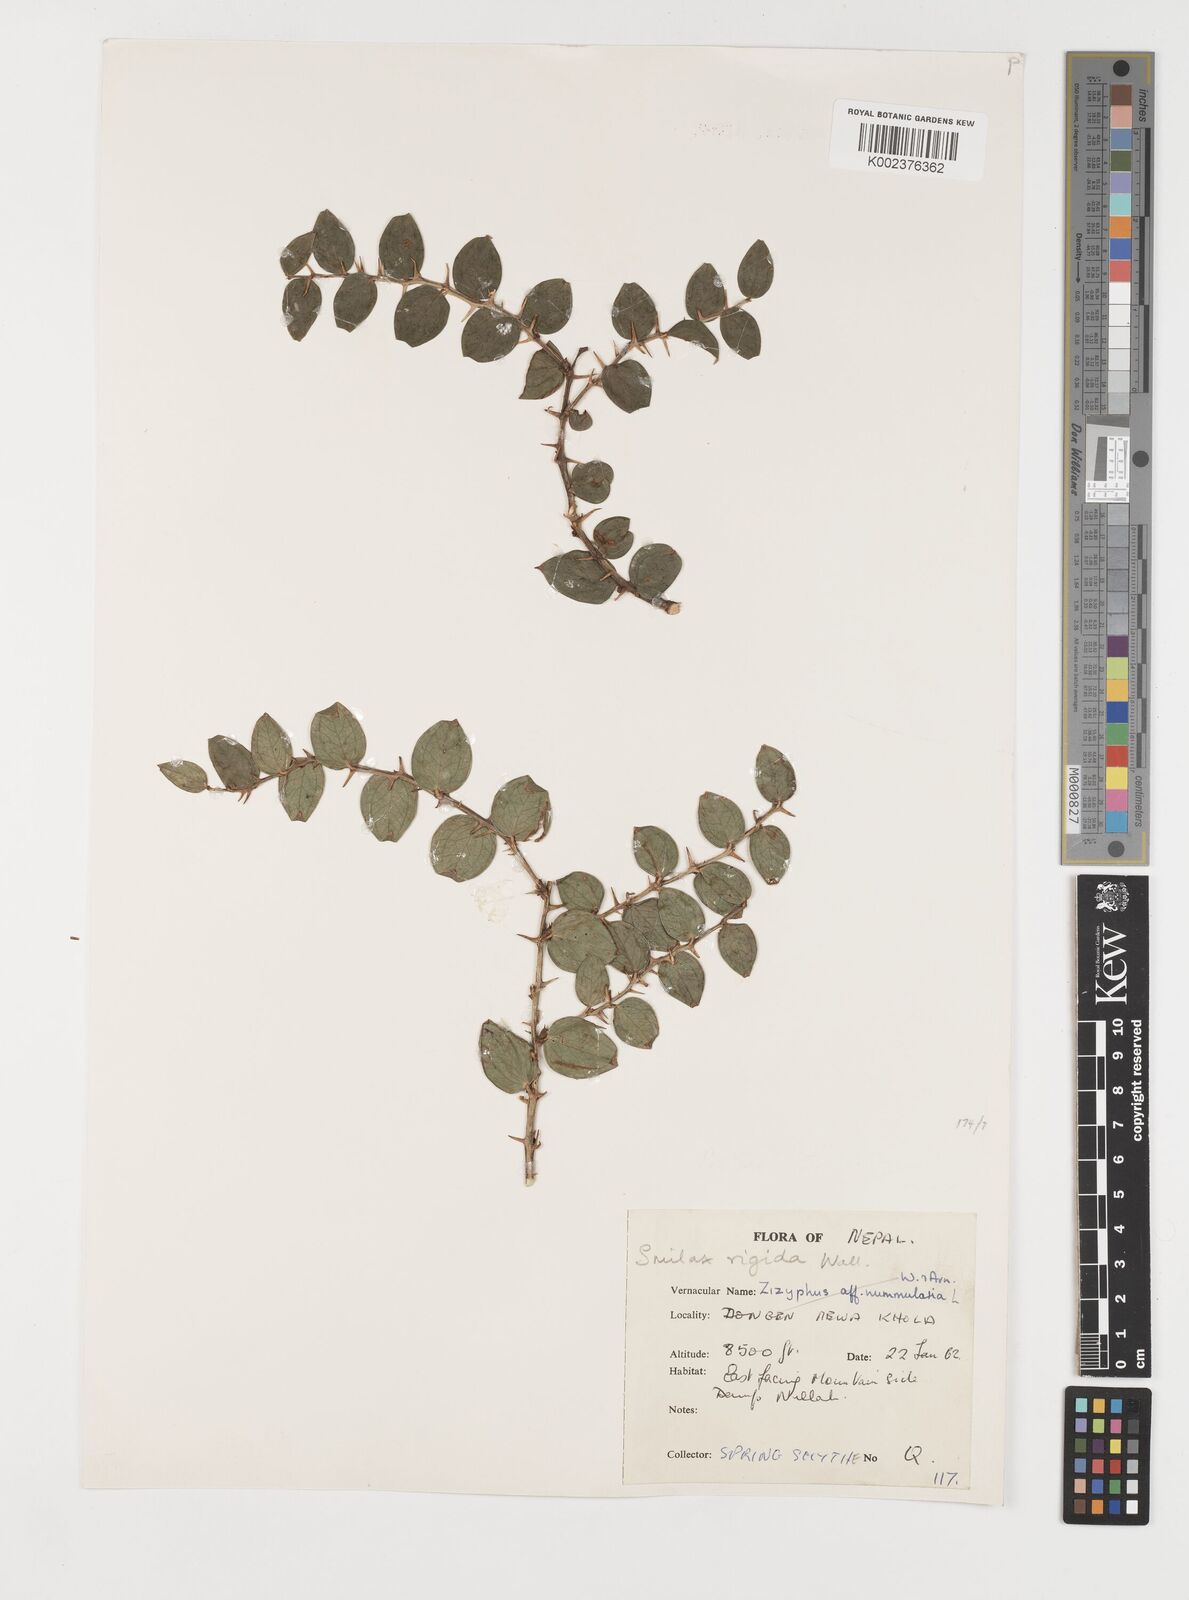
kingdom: Plantae
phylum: Tracheophyta
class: Liliopsida
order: Liliales
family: Smilacaceae
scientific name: Smilacaceae
